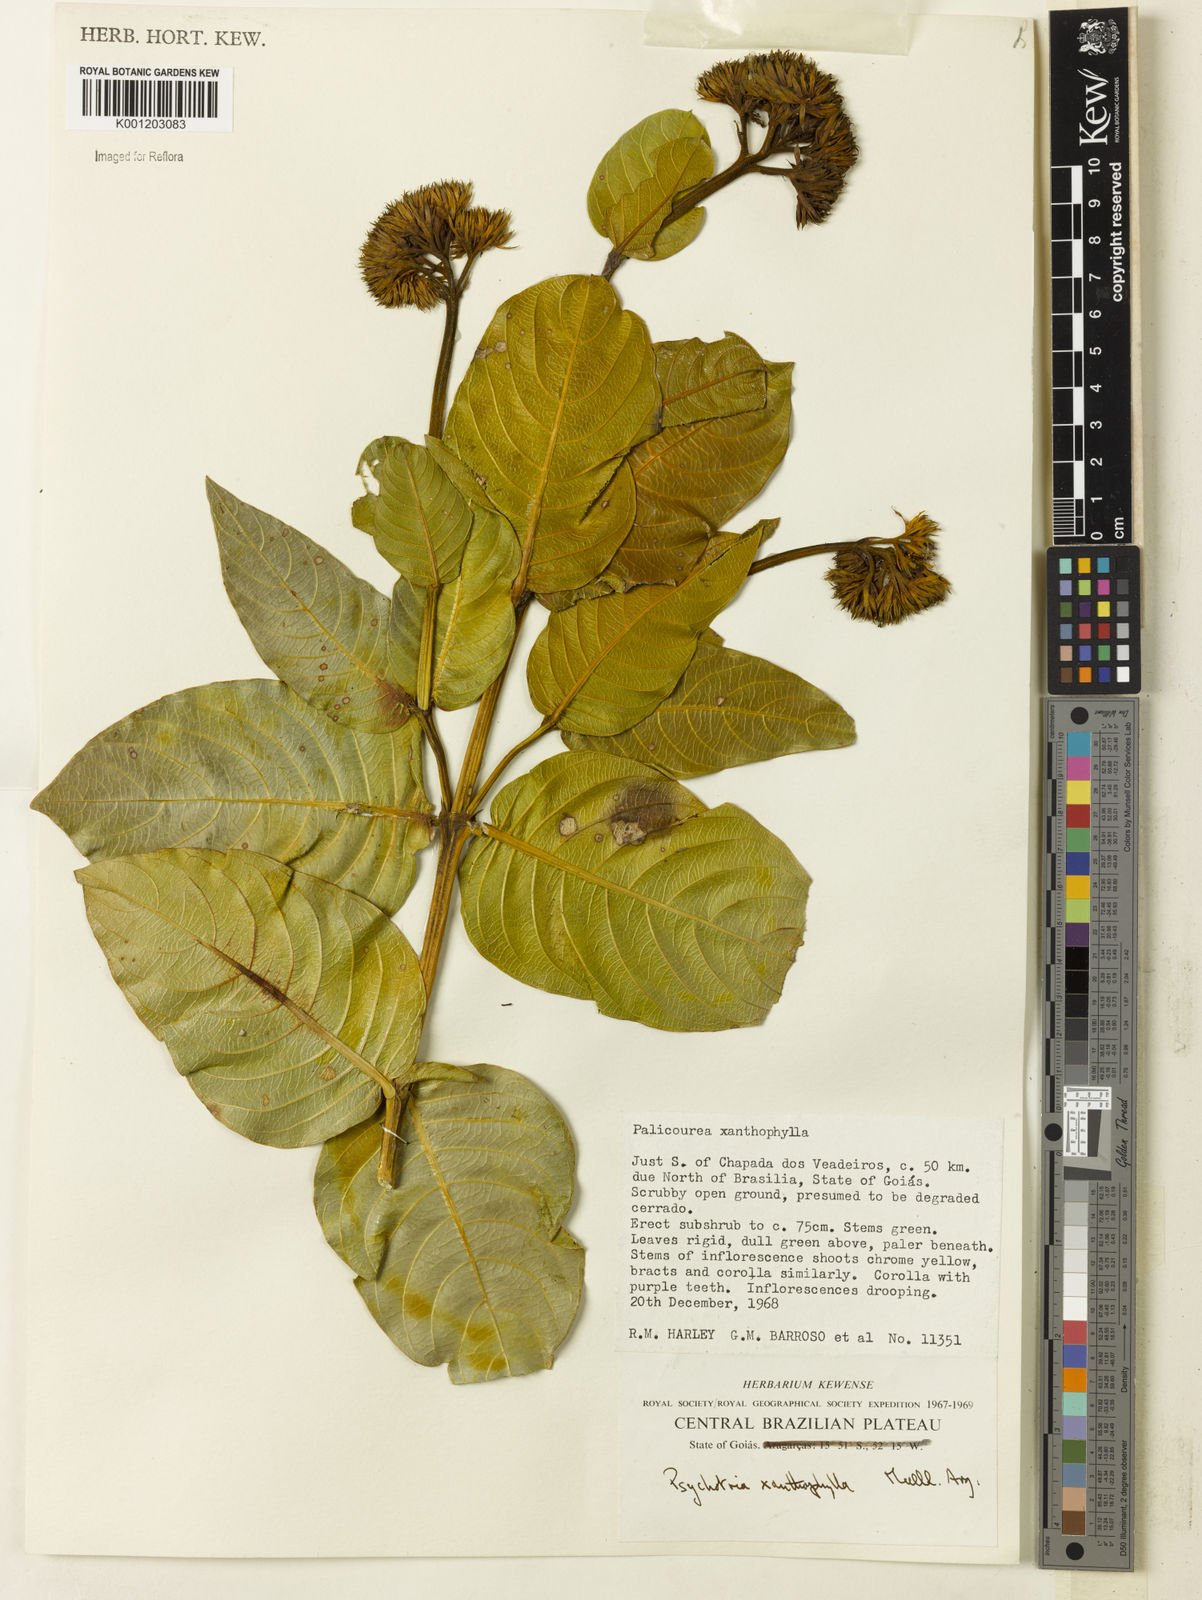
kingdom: Plantae
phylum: Tracheophyta
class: Magnoliopsida
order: Gentianales
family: Rubiaceae
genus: Palicourea
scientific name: Palicourea coriacea
